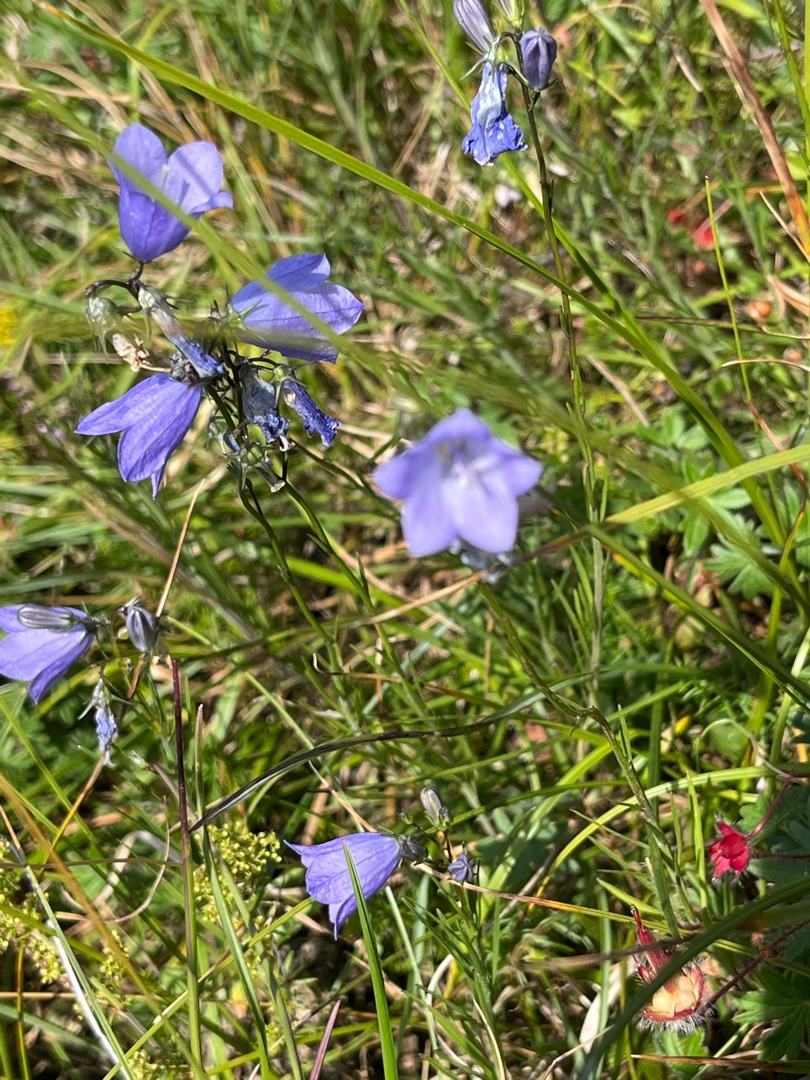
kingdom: Plantae
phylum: Tracheophyta
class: Magnoliopsida
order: Asterales
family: Campanulaceae
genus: Campanula
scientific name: Campanula rotundifolia
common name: Liden klokke
